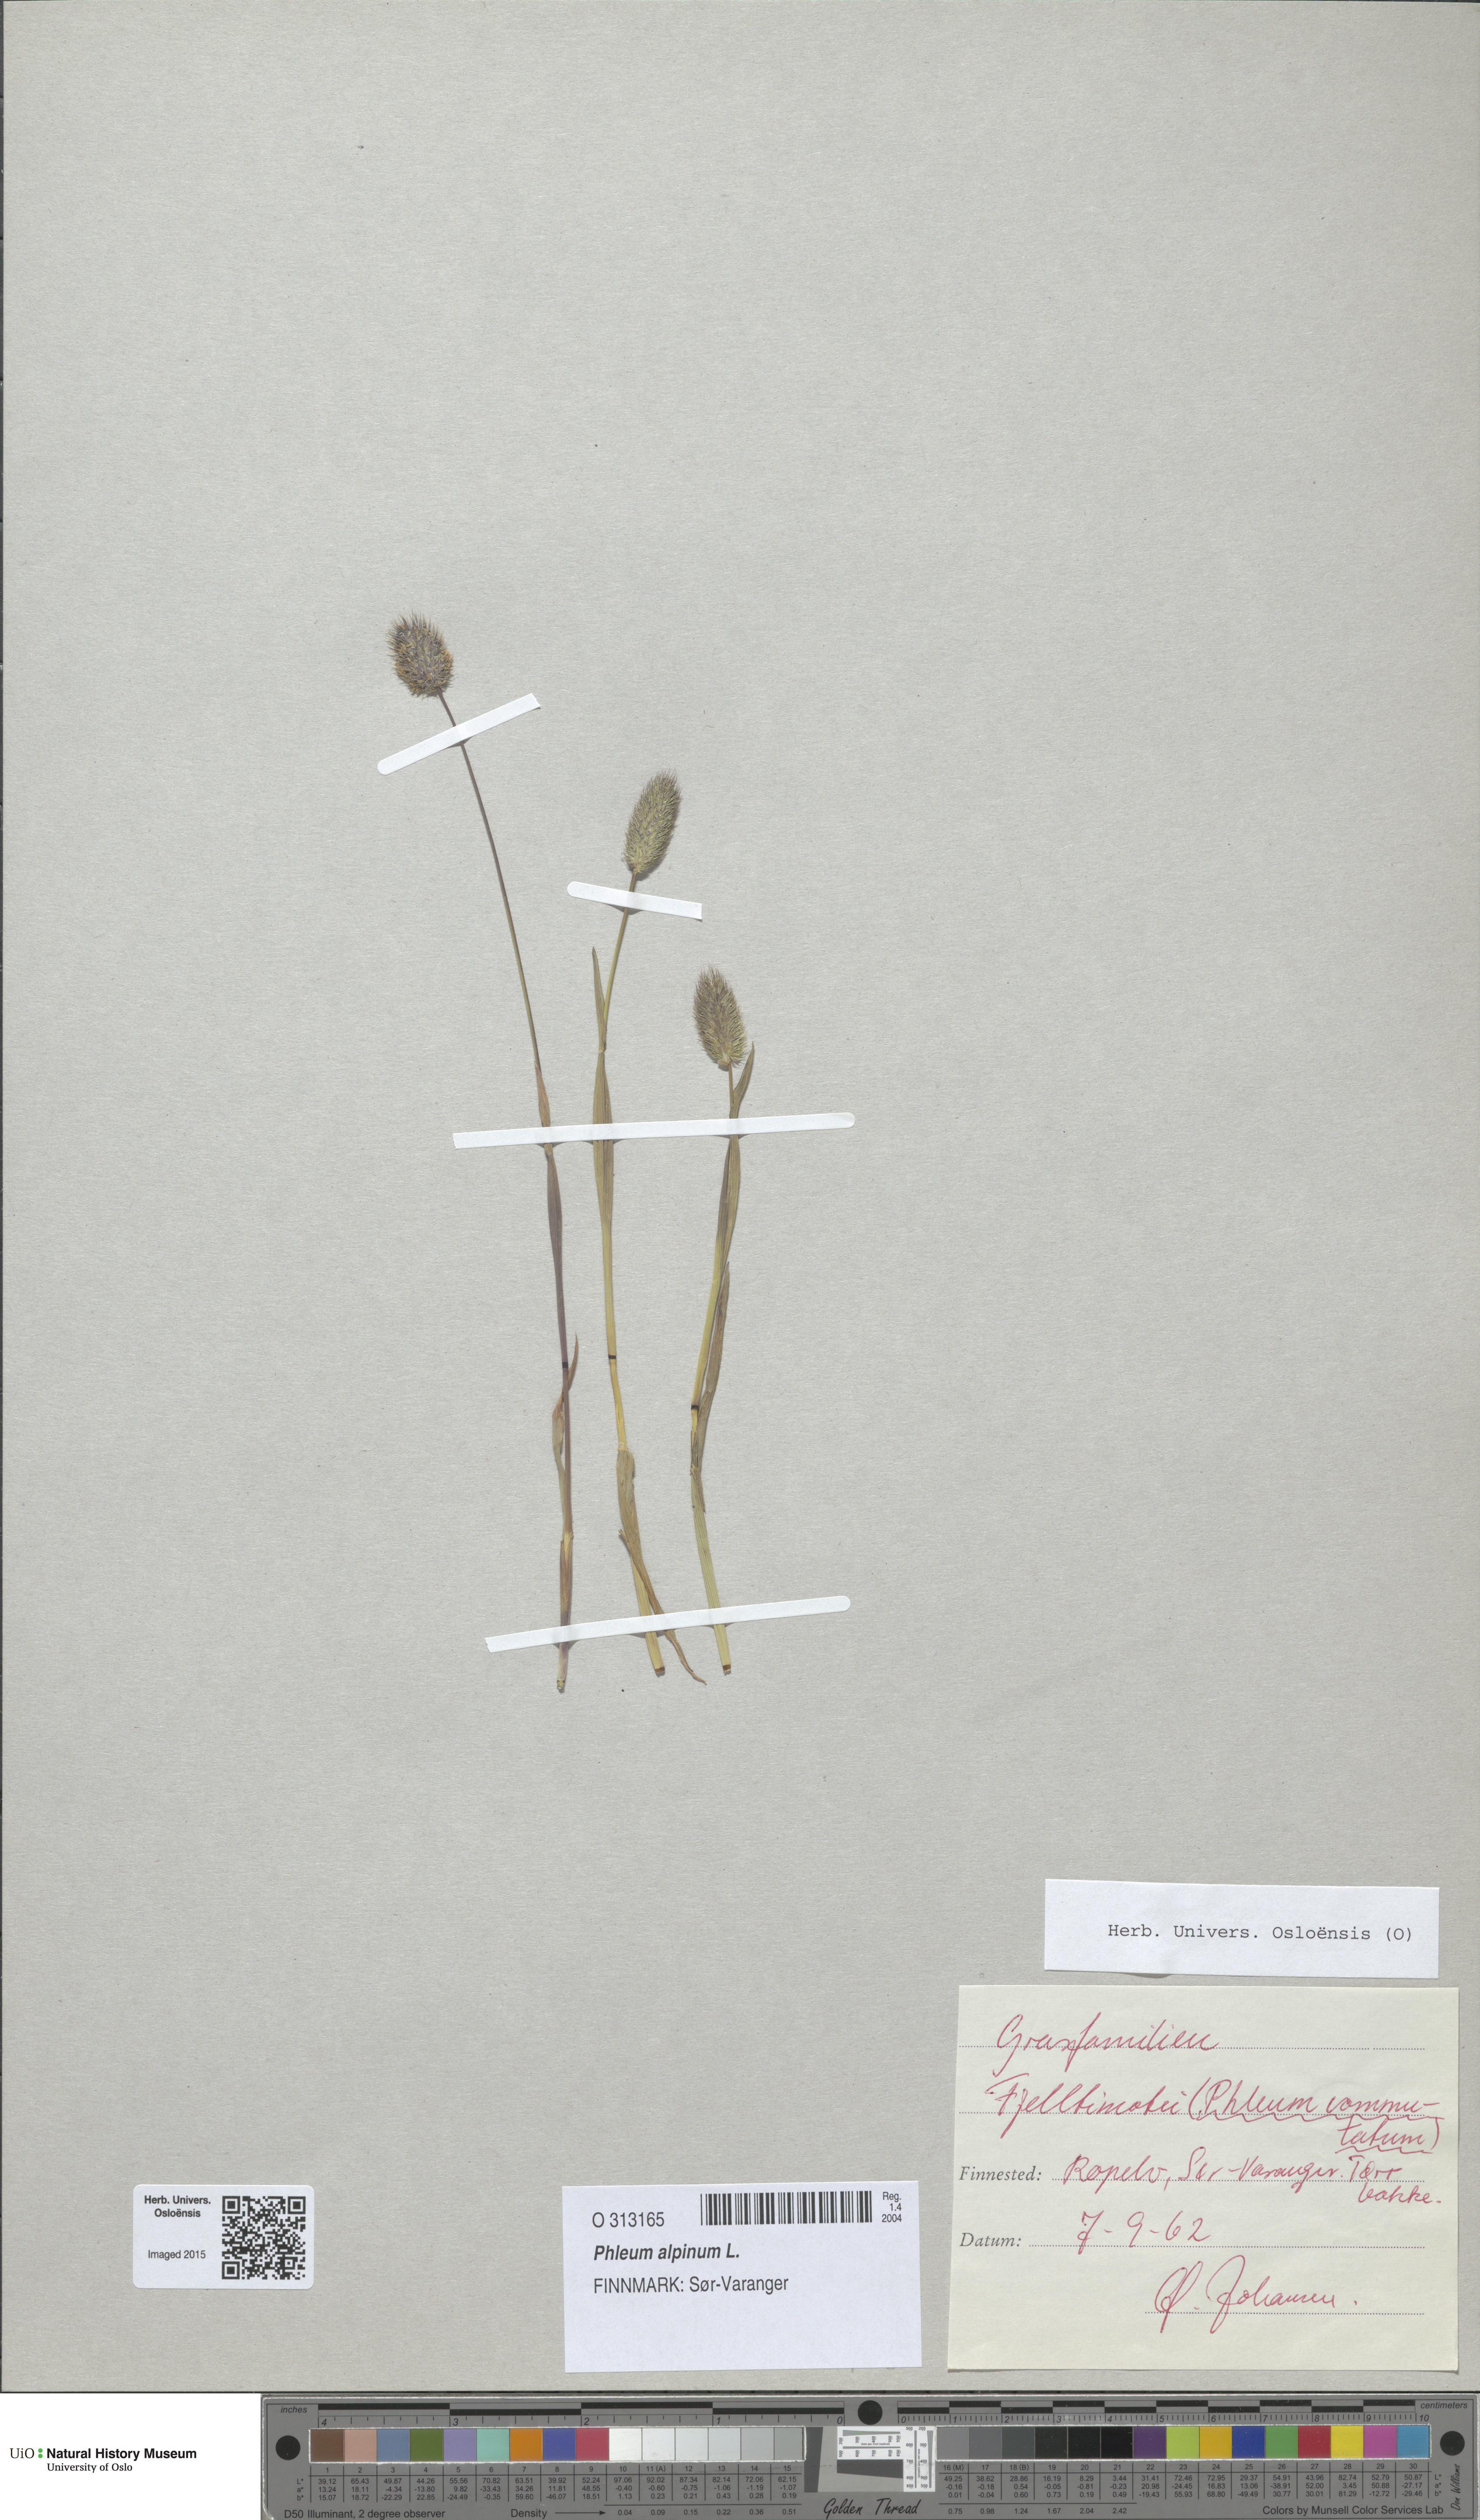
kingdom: Plantae
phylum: Tracheophyta
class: Liliopsida
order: Poales
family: Poaceae
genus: Phleum
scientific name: Phleum alpinum
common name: Alpine cat's-tail
